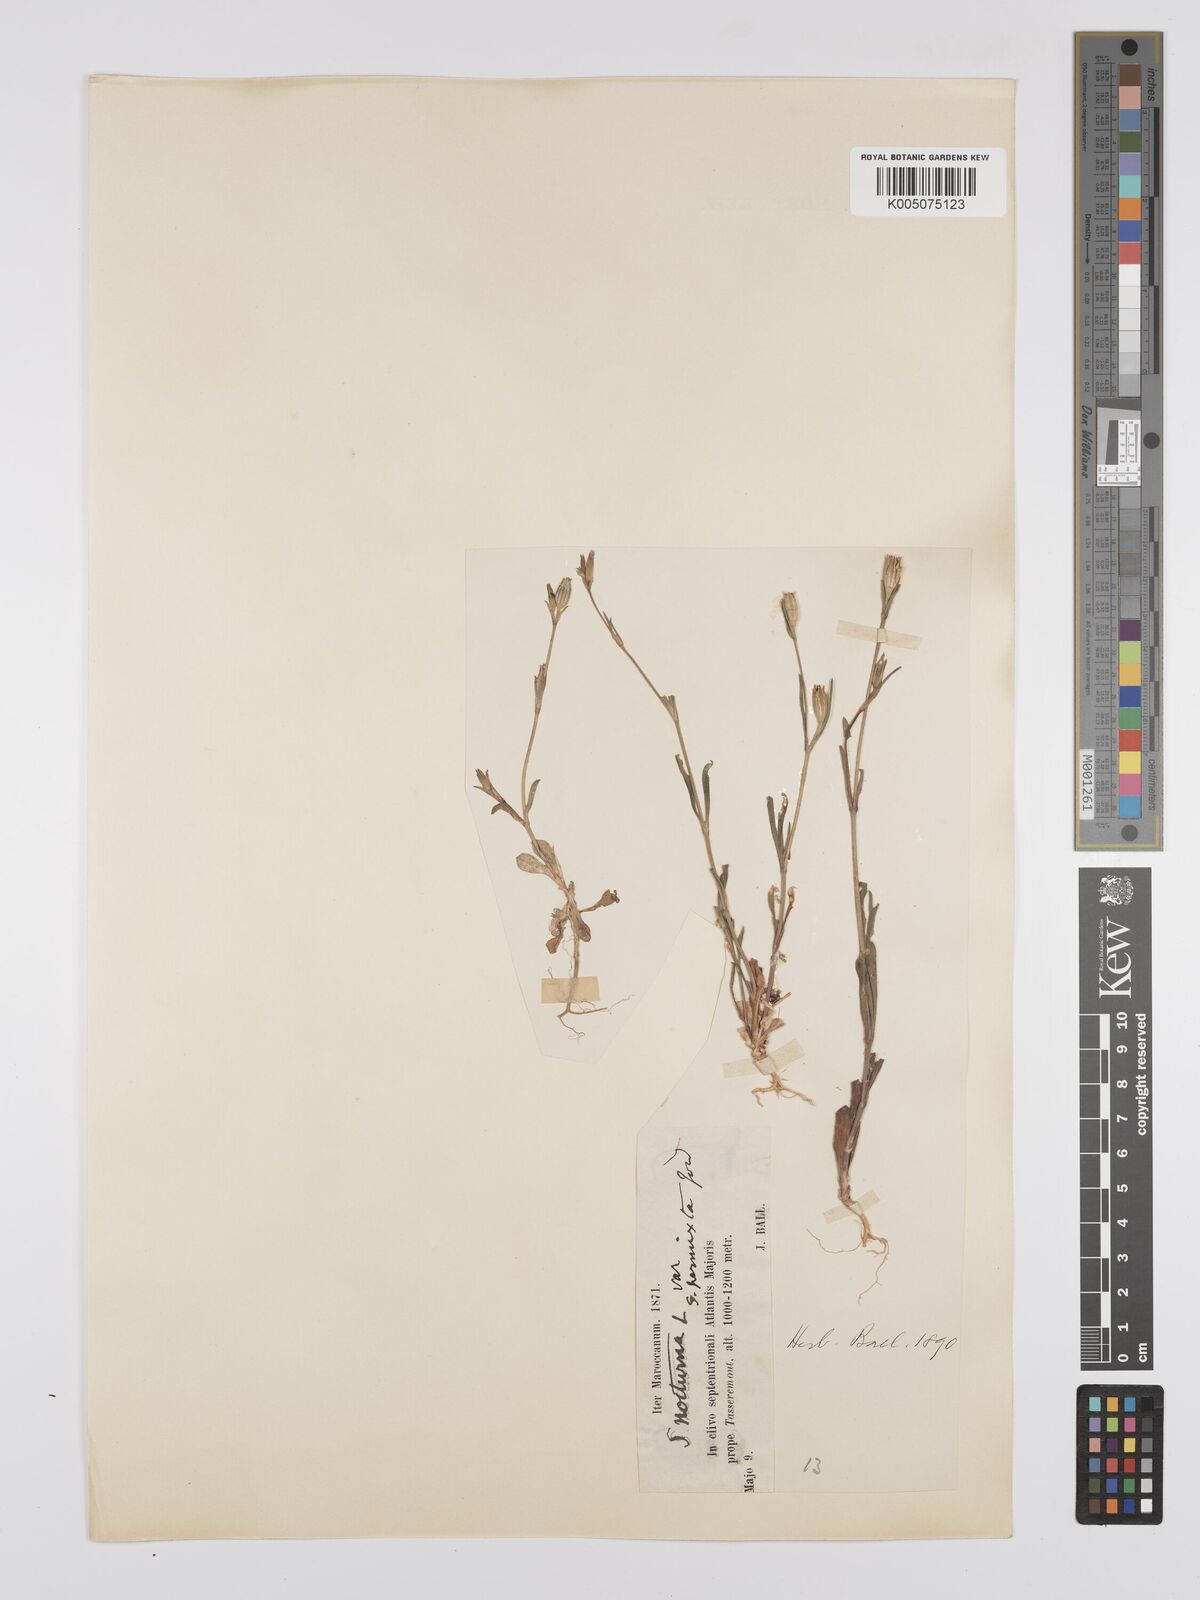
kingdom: Plantae
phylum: Tracheophyta
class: Magnoliopsida
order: Caryophyllales
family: Caryophyllaceae
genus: Silene
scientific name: Silene nocturna
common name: Mediterranean catchfly
